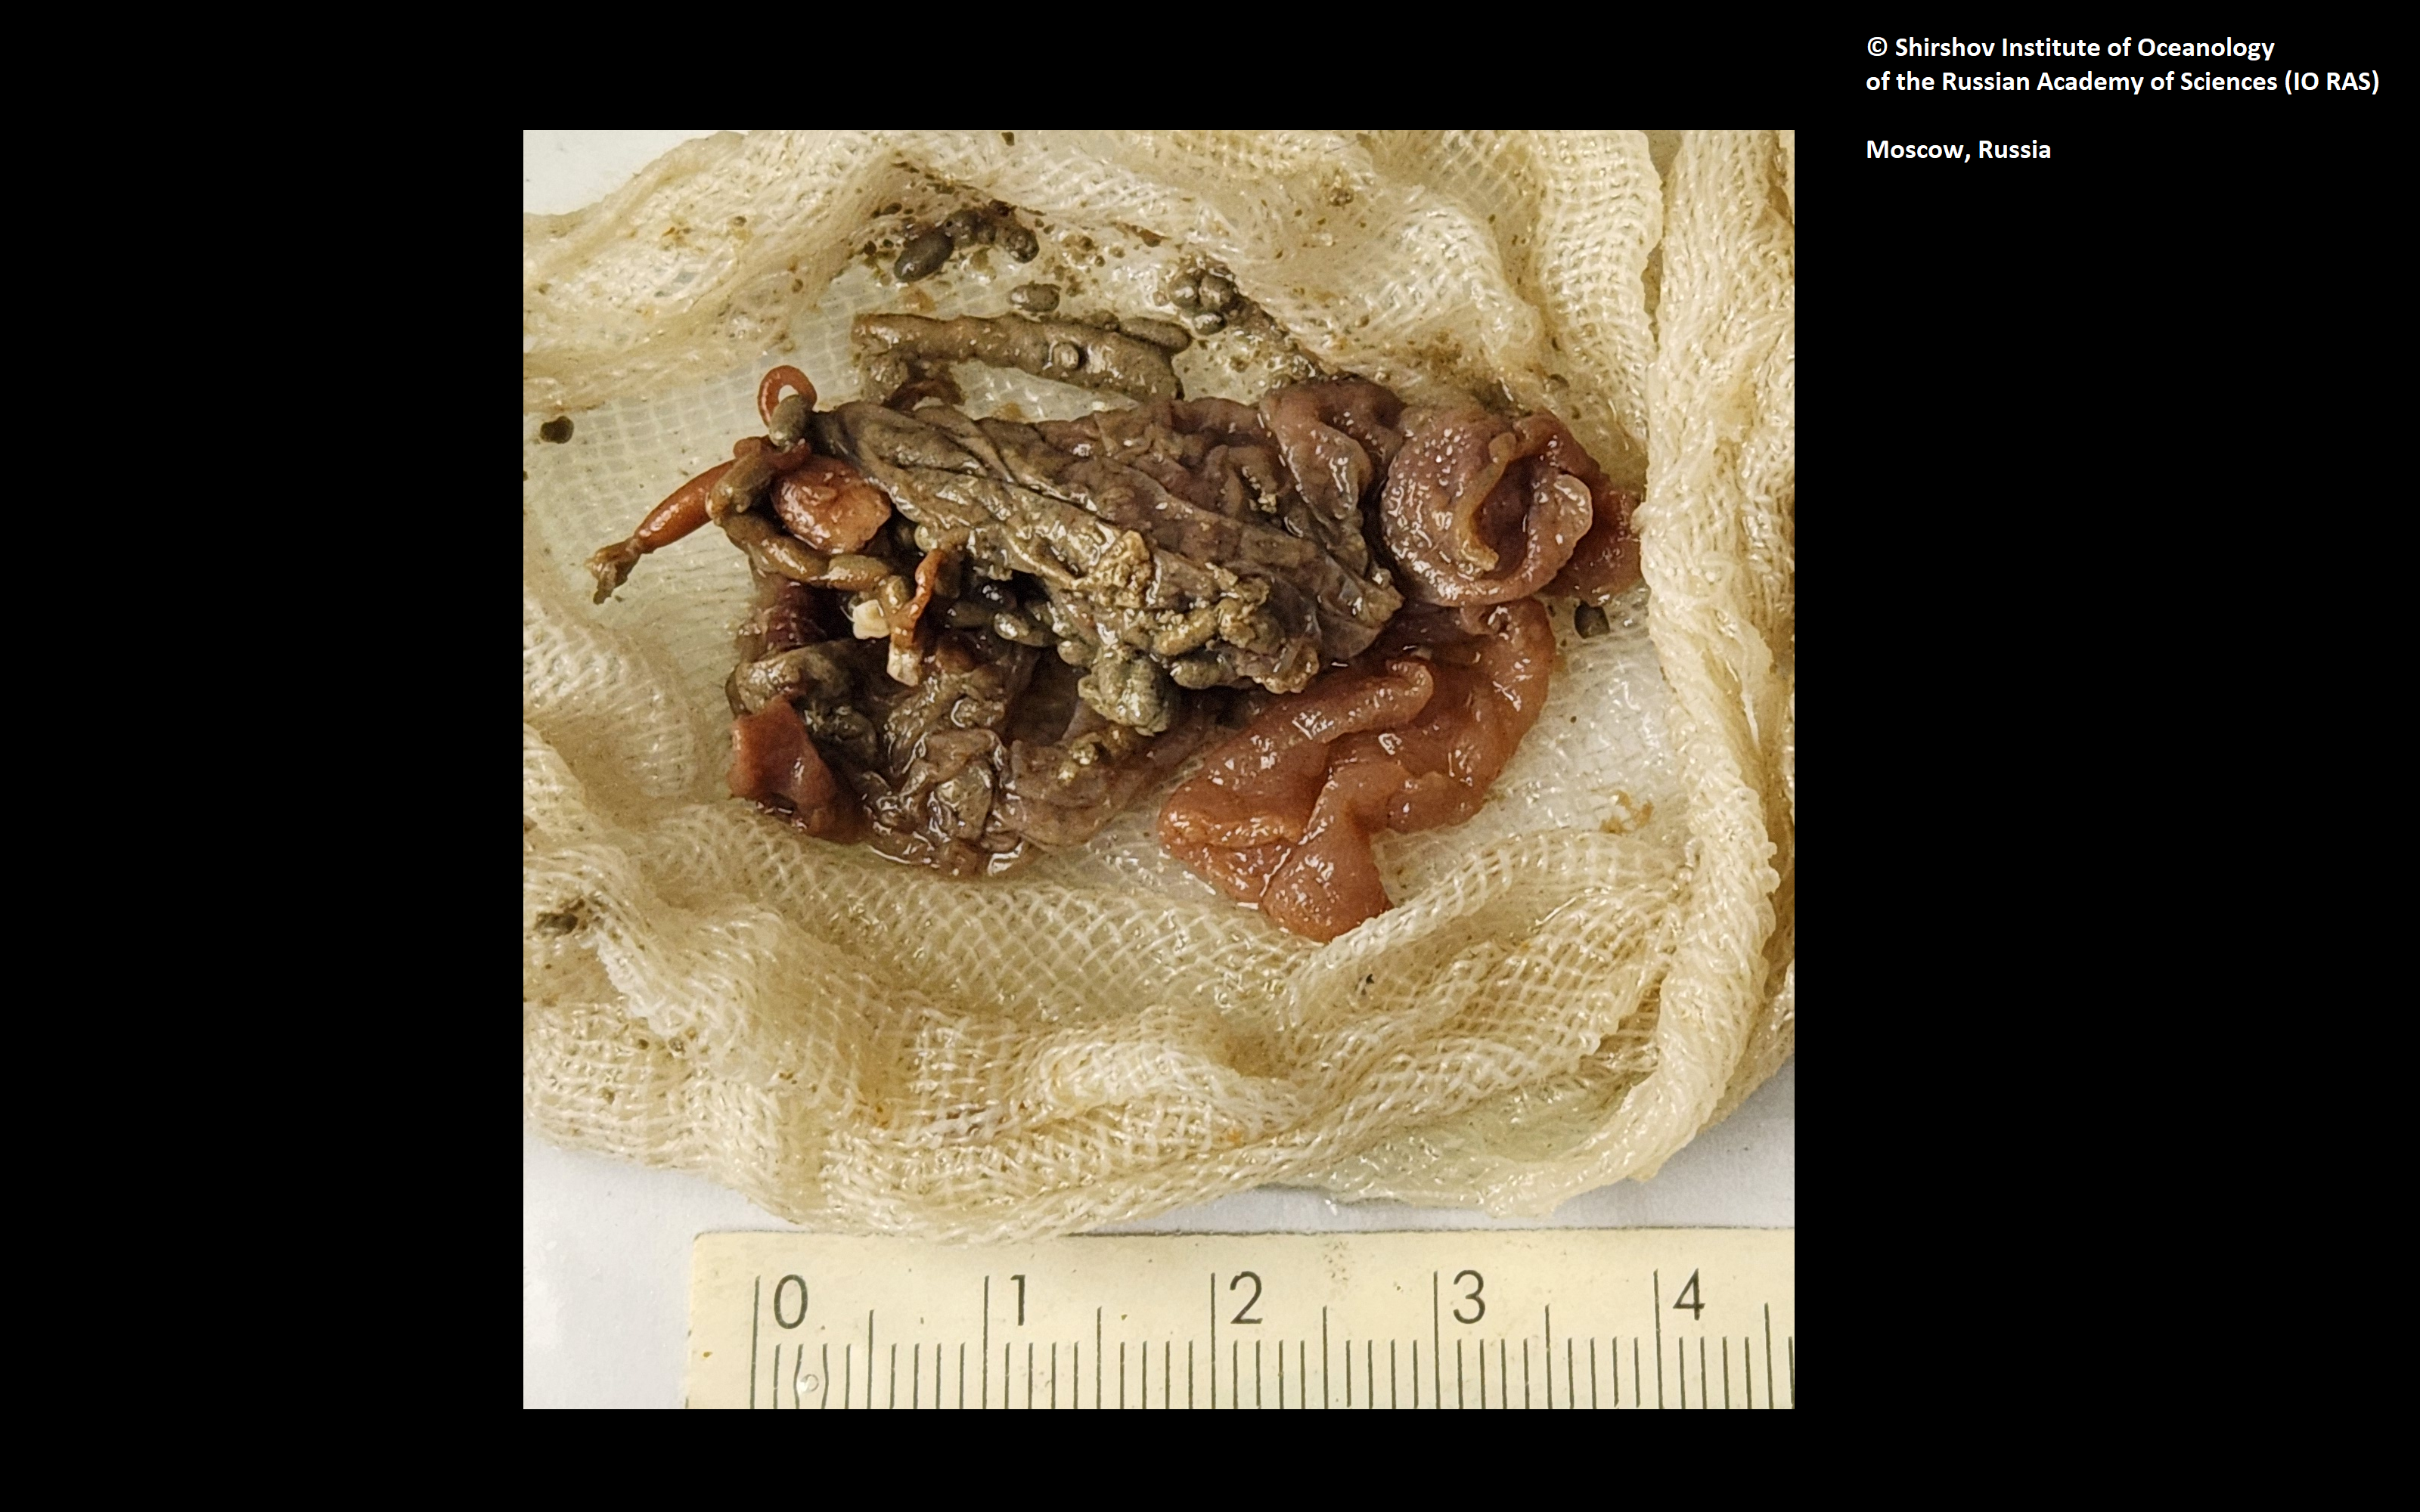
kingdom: Animalia
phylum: Annelida
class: Polychaeta
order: Echiuroidea
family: Bonelliidae
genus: Sluiterina
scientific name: Sluiterina flabellorhynchum
